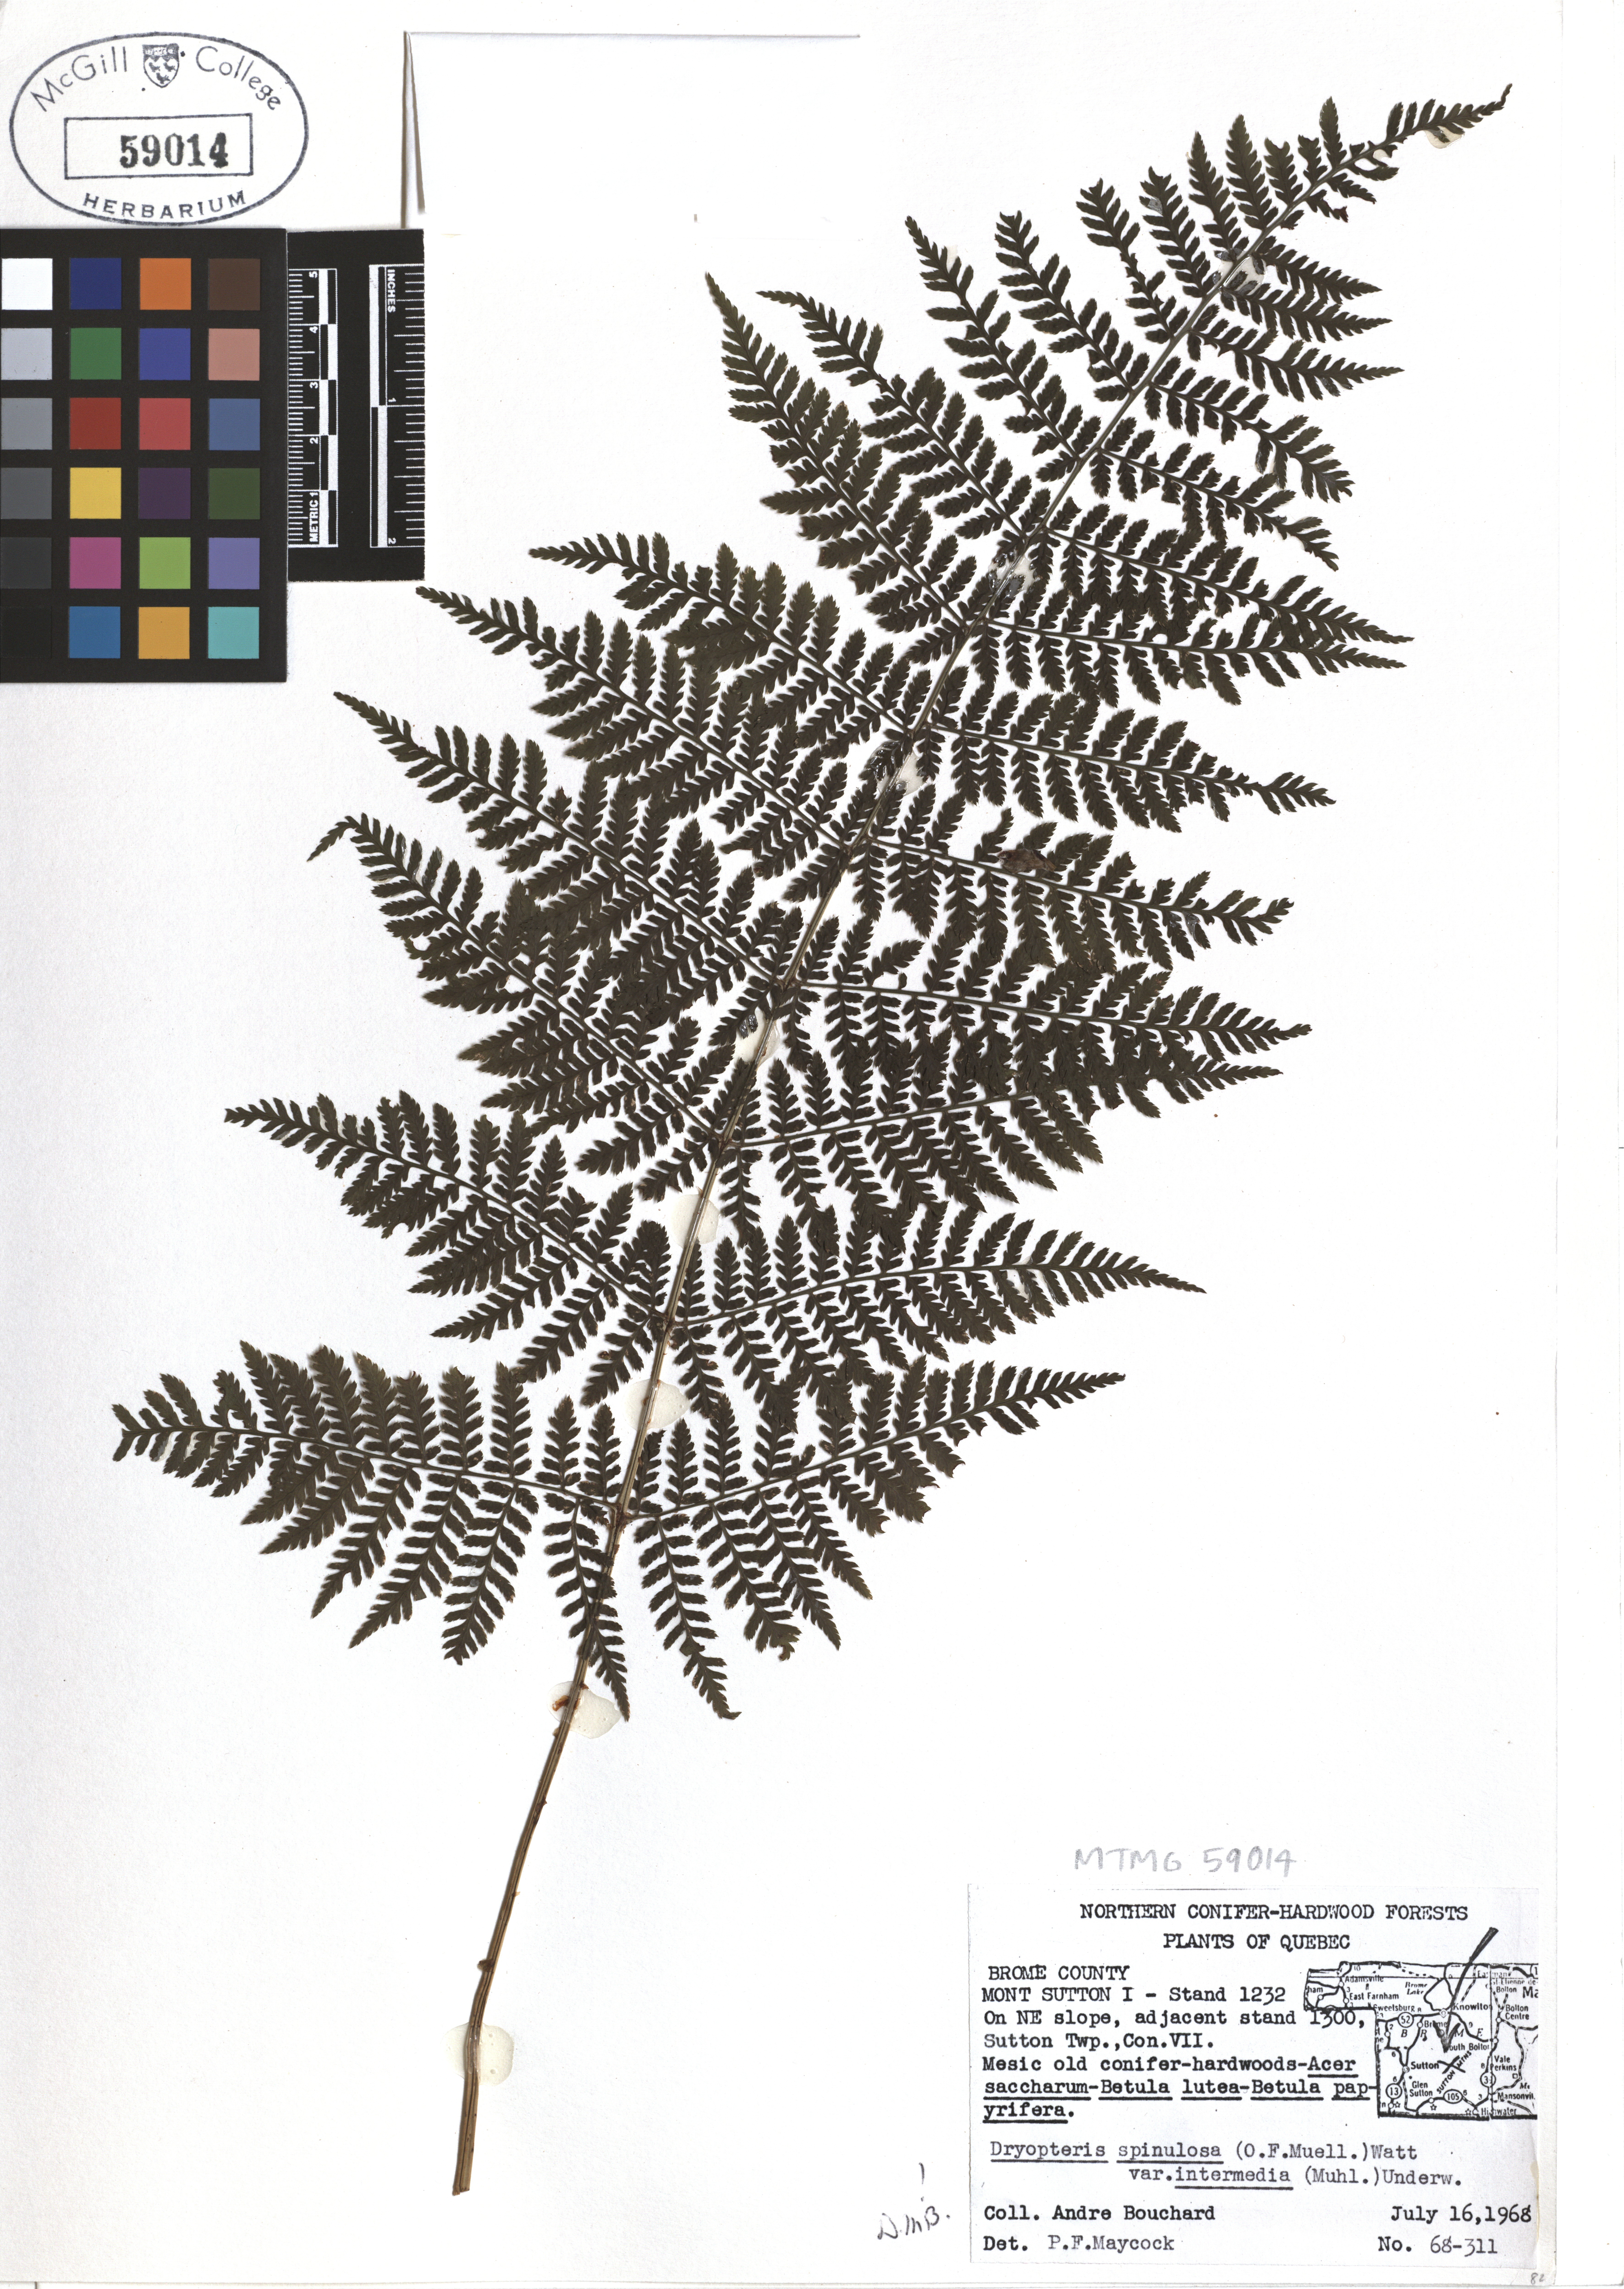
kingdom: Plantae
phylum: Tracheophyta
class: Polypodiopsida
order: Polypodiales
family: Dryopteridaceae
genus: Dryopteris
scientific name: Dryopteris intermedia
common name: Evergreen wood fern
